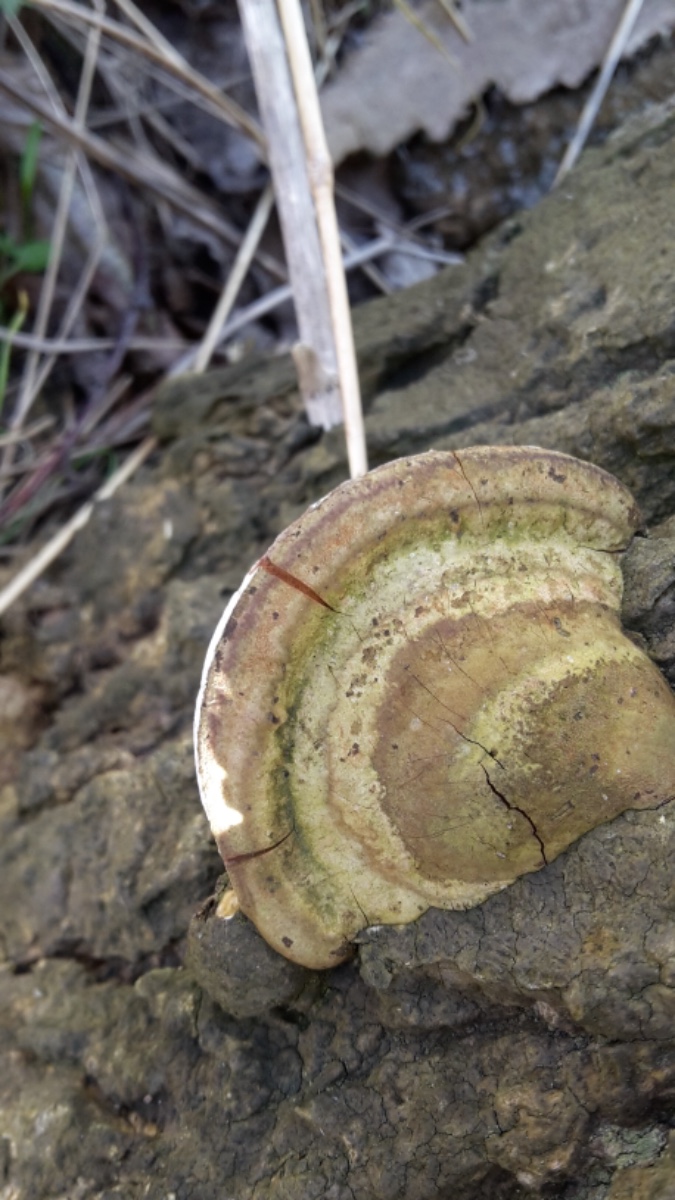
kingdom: Fungi
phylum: Basidiomycota
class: Agaricomycetes
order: Polyporales
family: Polyporaceae
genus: Ganoderma
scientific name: Ganoderma applanatum
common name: flad lakporesvamp
